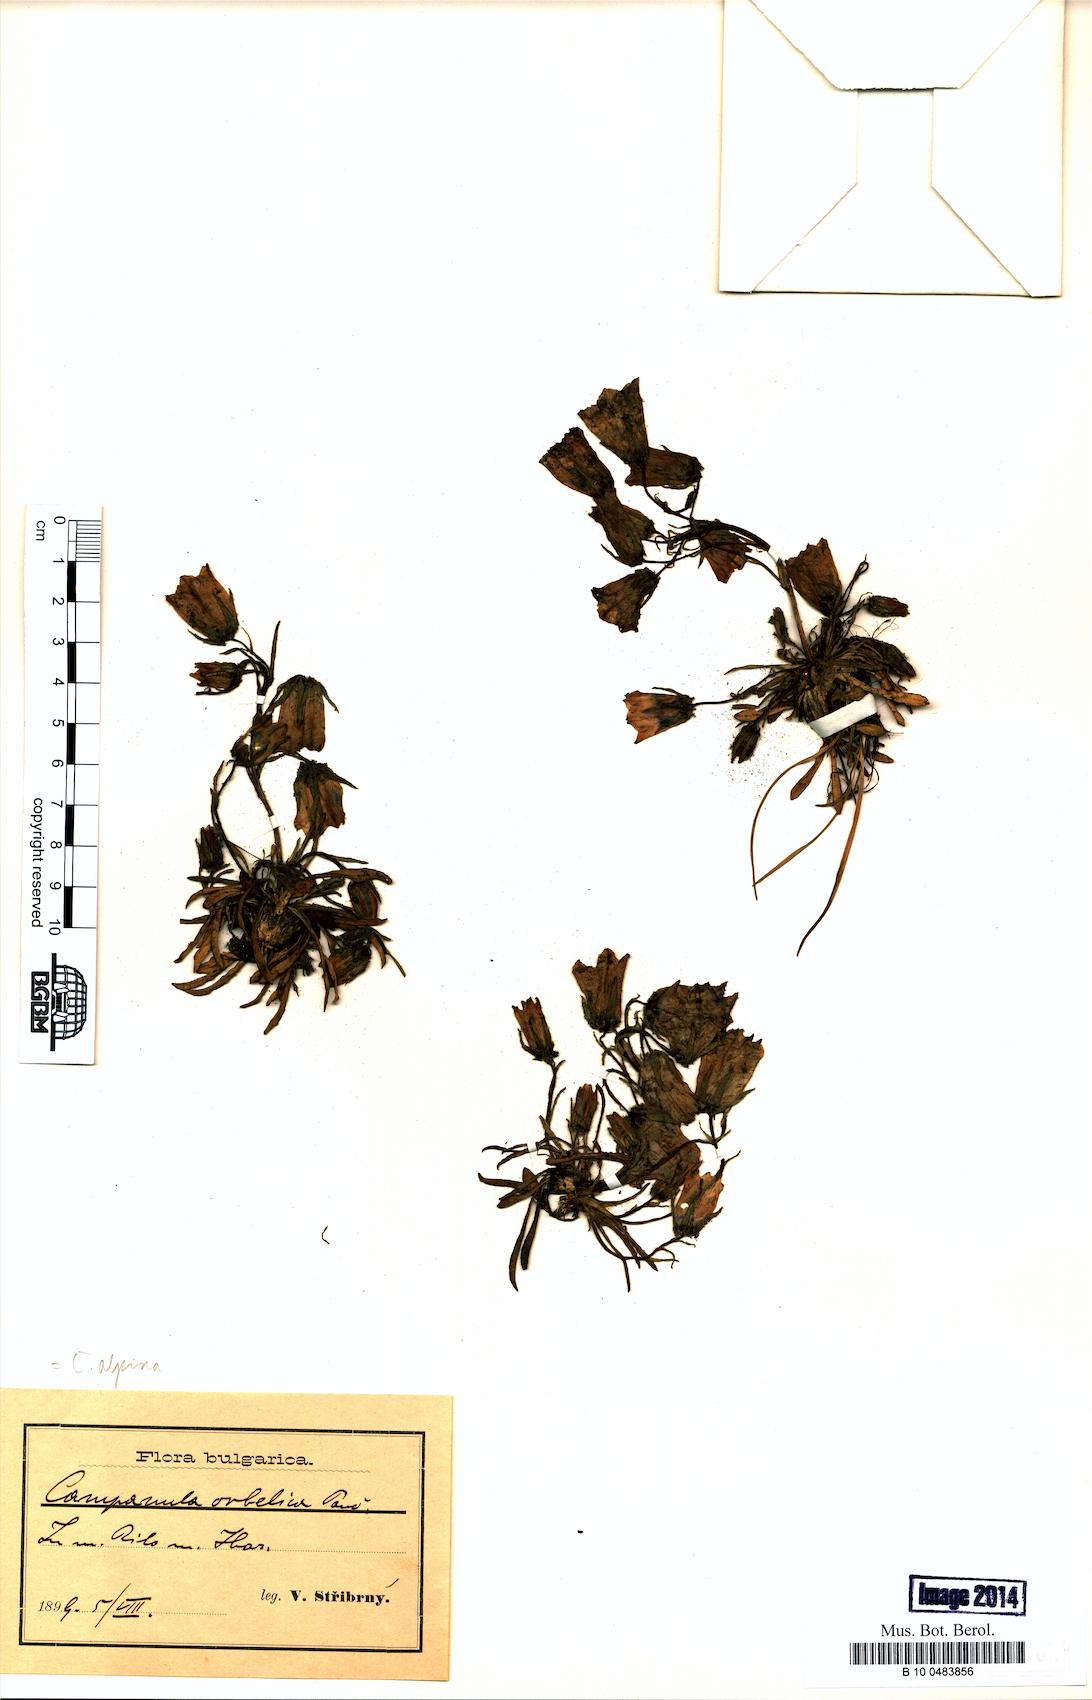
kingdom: Plantae
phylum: Tracheophyta
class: Magnoliopsida
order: Asterales
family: Campanulaceae
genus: Campanula
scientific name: Campanula alpina
